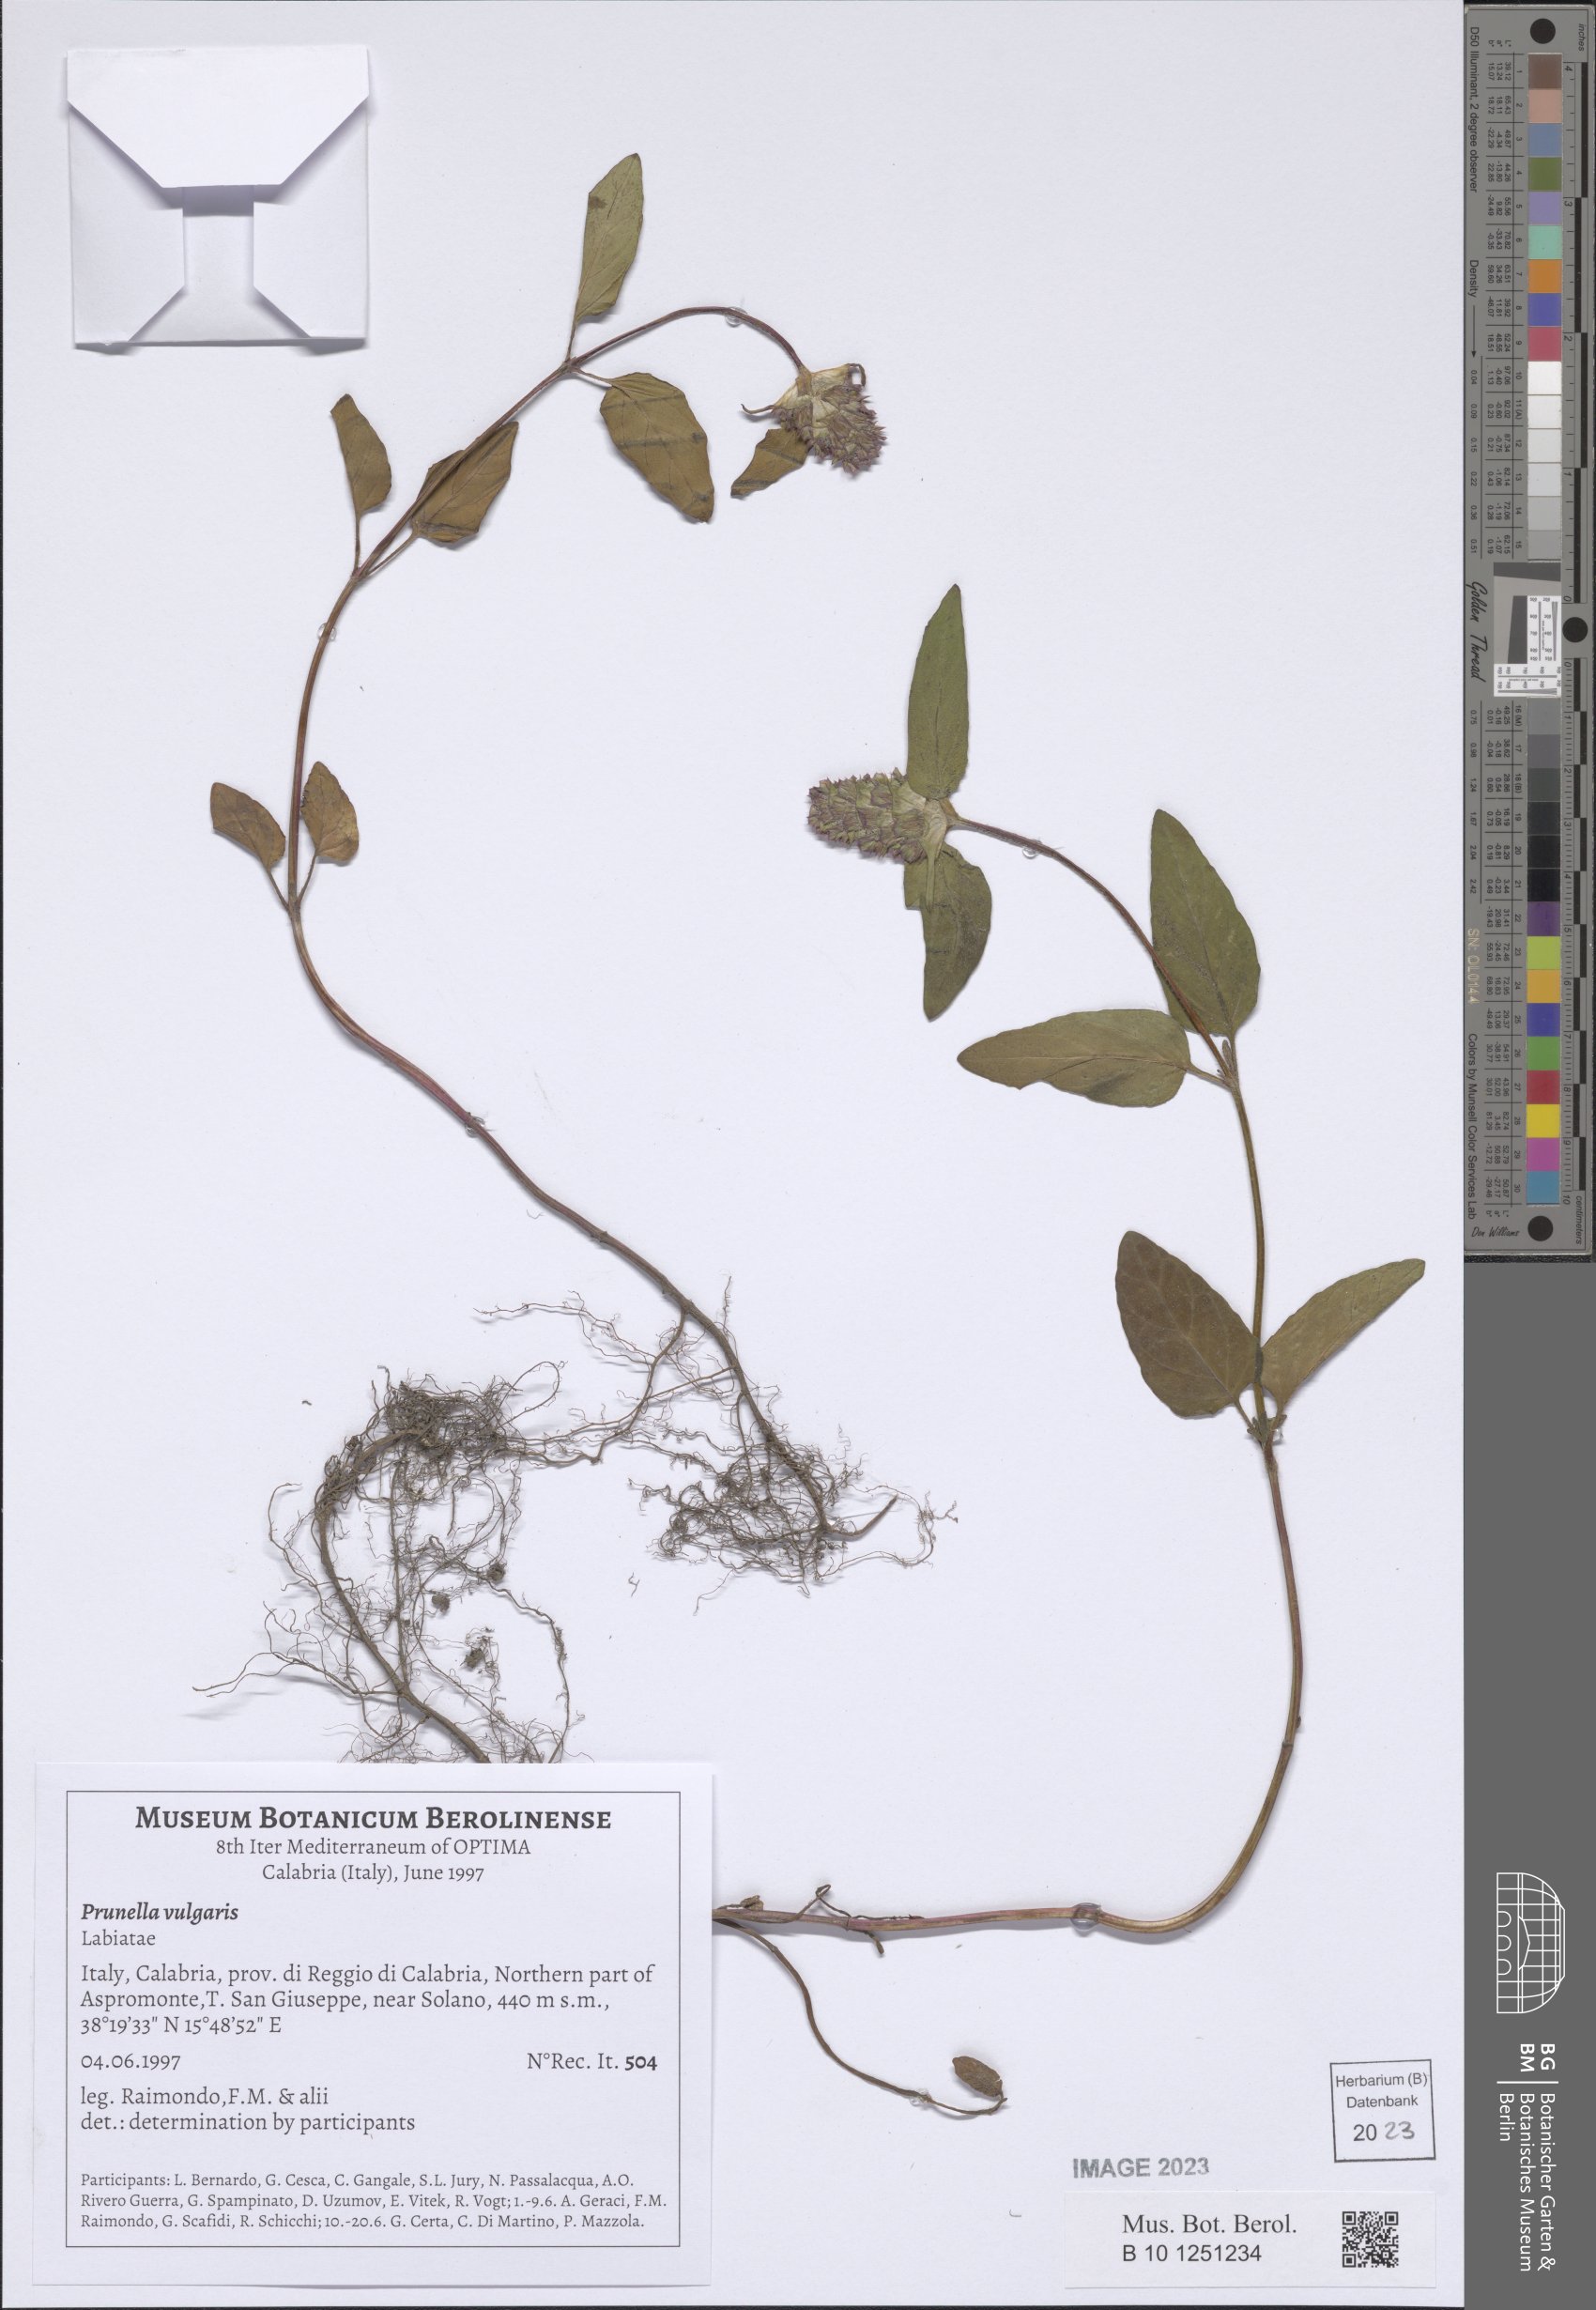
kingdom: Plantae
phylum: Tracheophyta
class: Magnoliopsida
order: Lamiales
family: Lamiaceae
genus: Prunella
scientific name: Prunella vulgaris
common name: Heal-all
